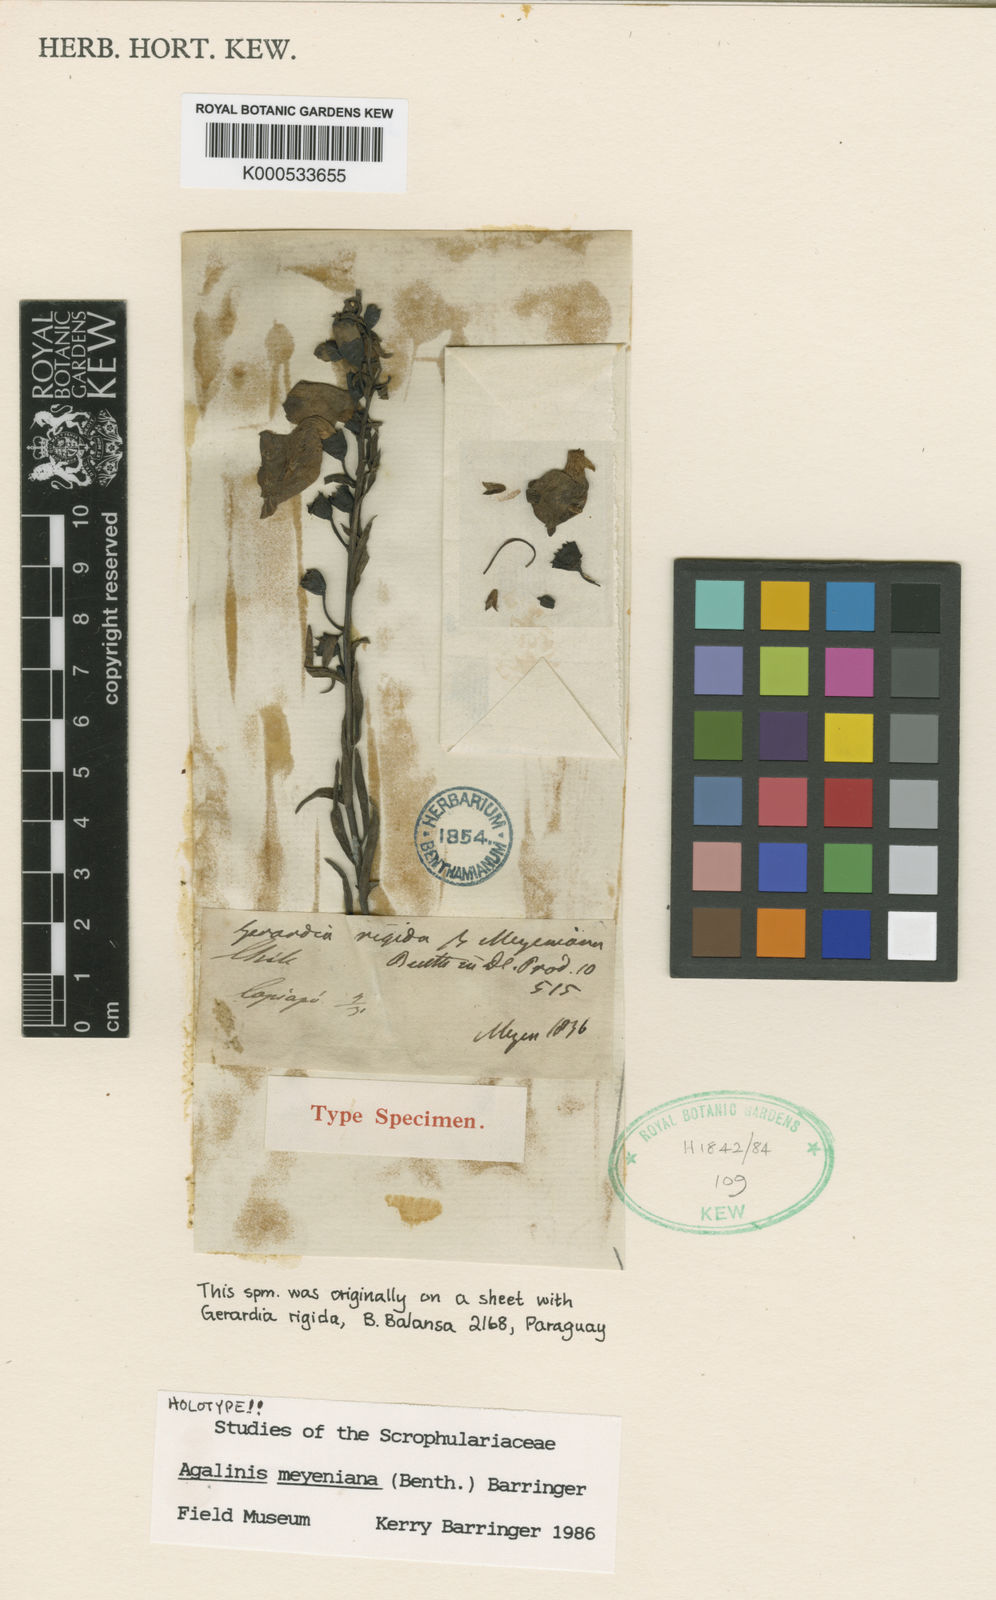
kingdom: Plantae
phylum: Tracheophyta
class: Magnoliopsida
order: Lamiales
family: Orobanchaceae
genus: Agalinis
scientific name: Agalinis meyeniana
